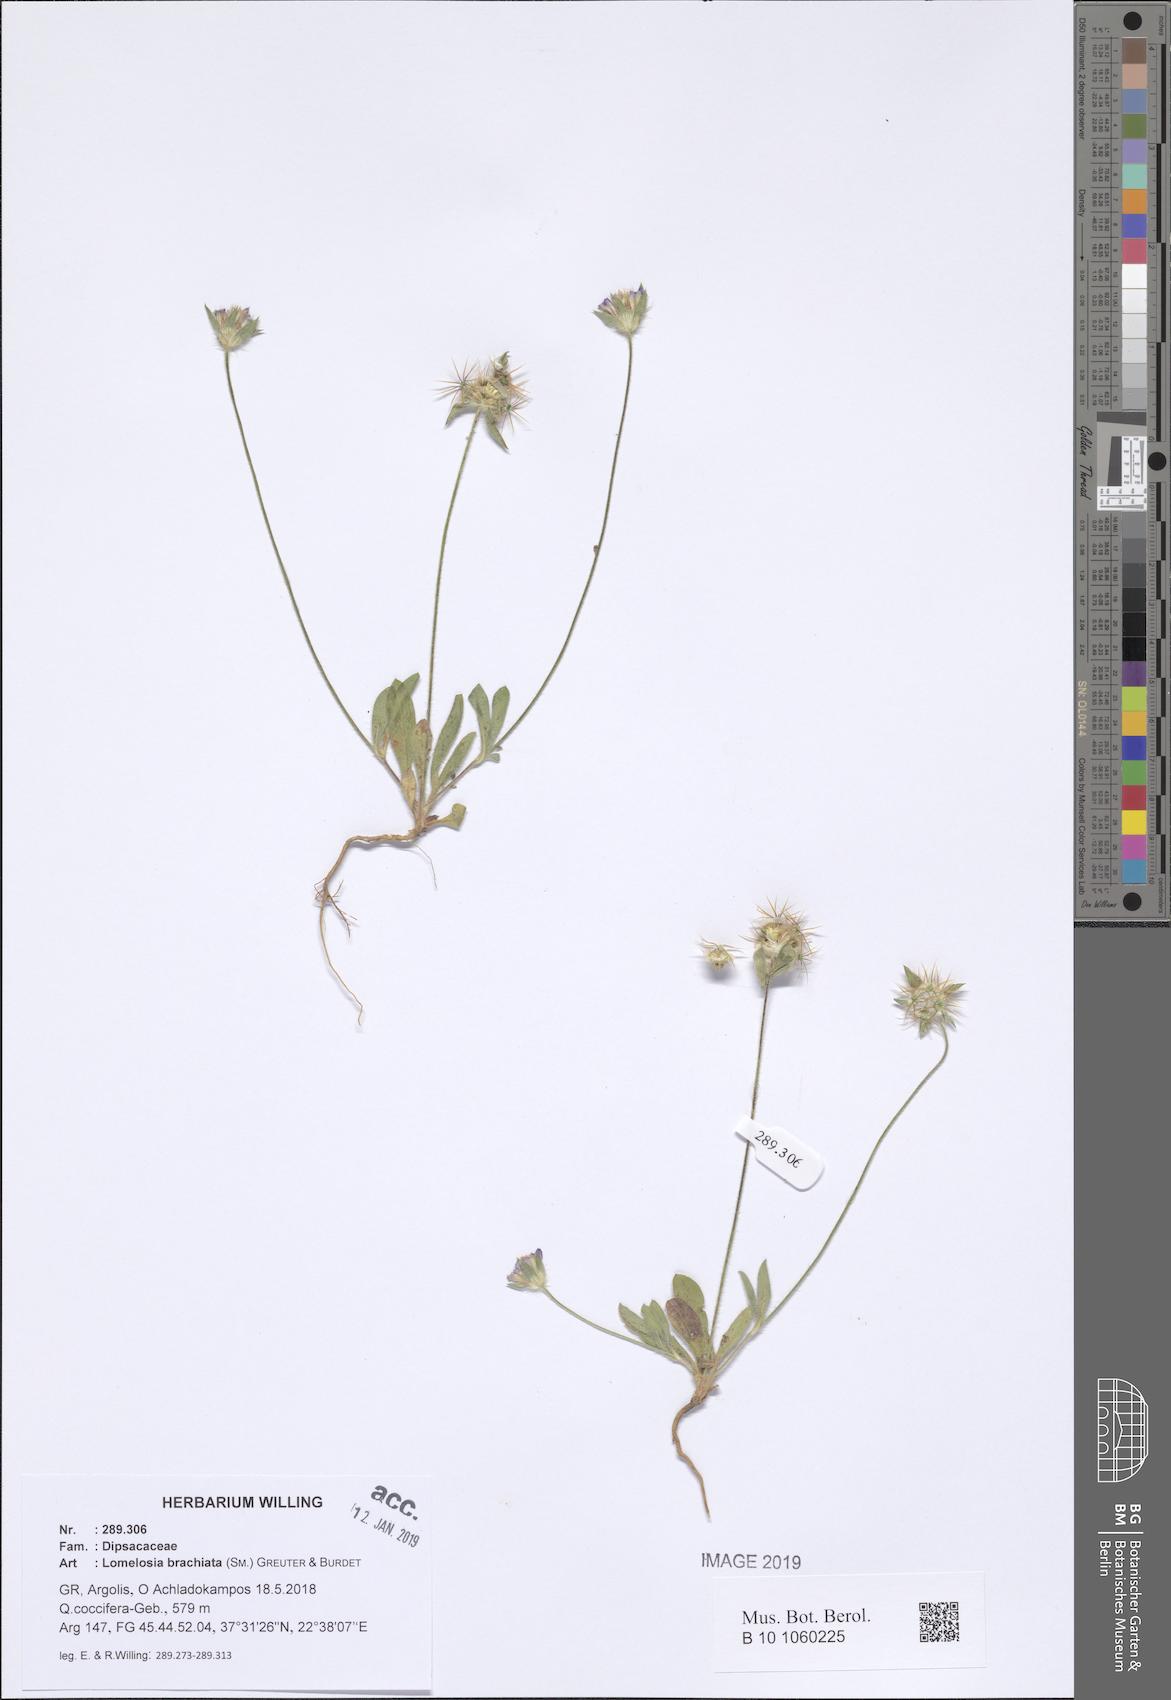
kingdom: Plantae
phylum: Tracheophyta
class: Magnoliopsida
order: Dipsacales
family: Caprifoliaceae
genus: Lomelosia
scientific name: Lomelosia brachiata
